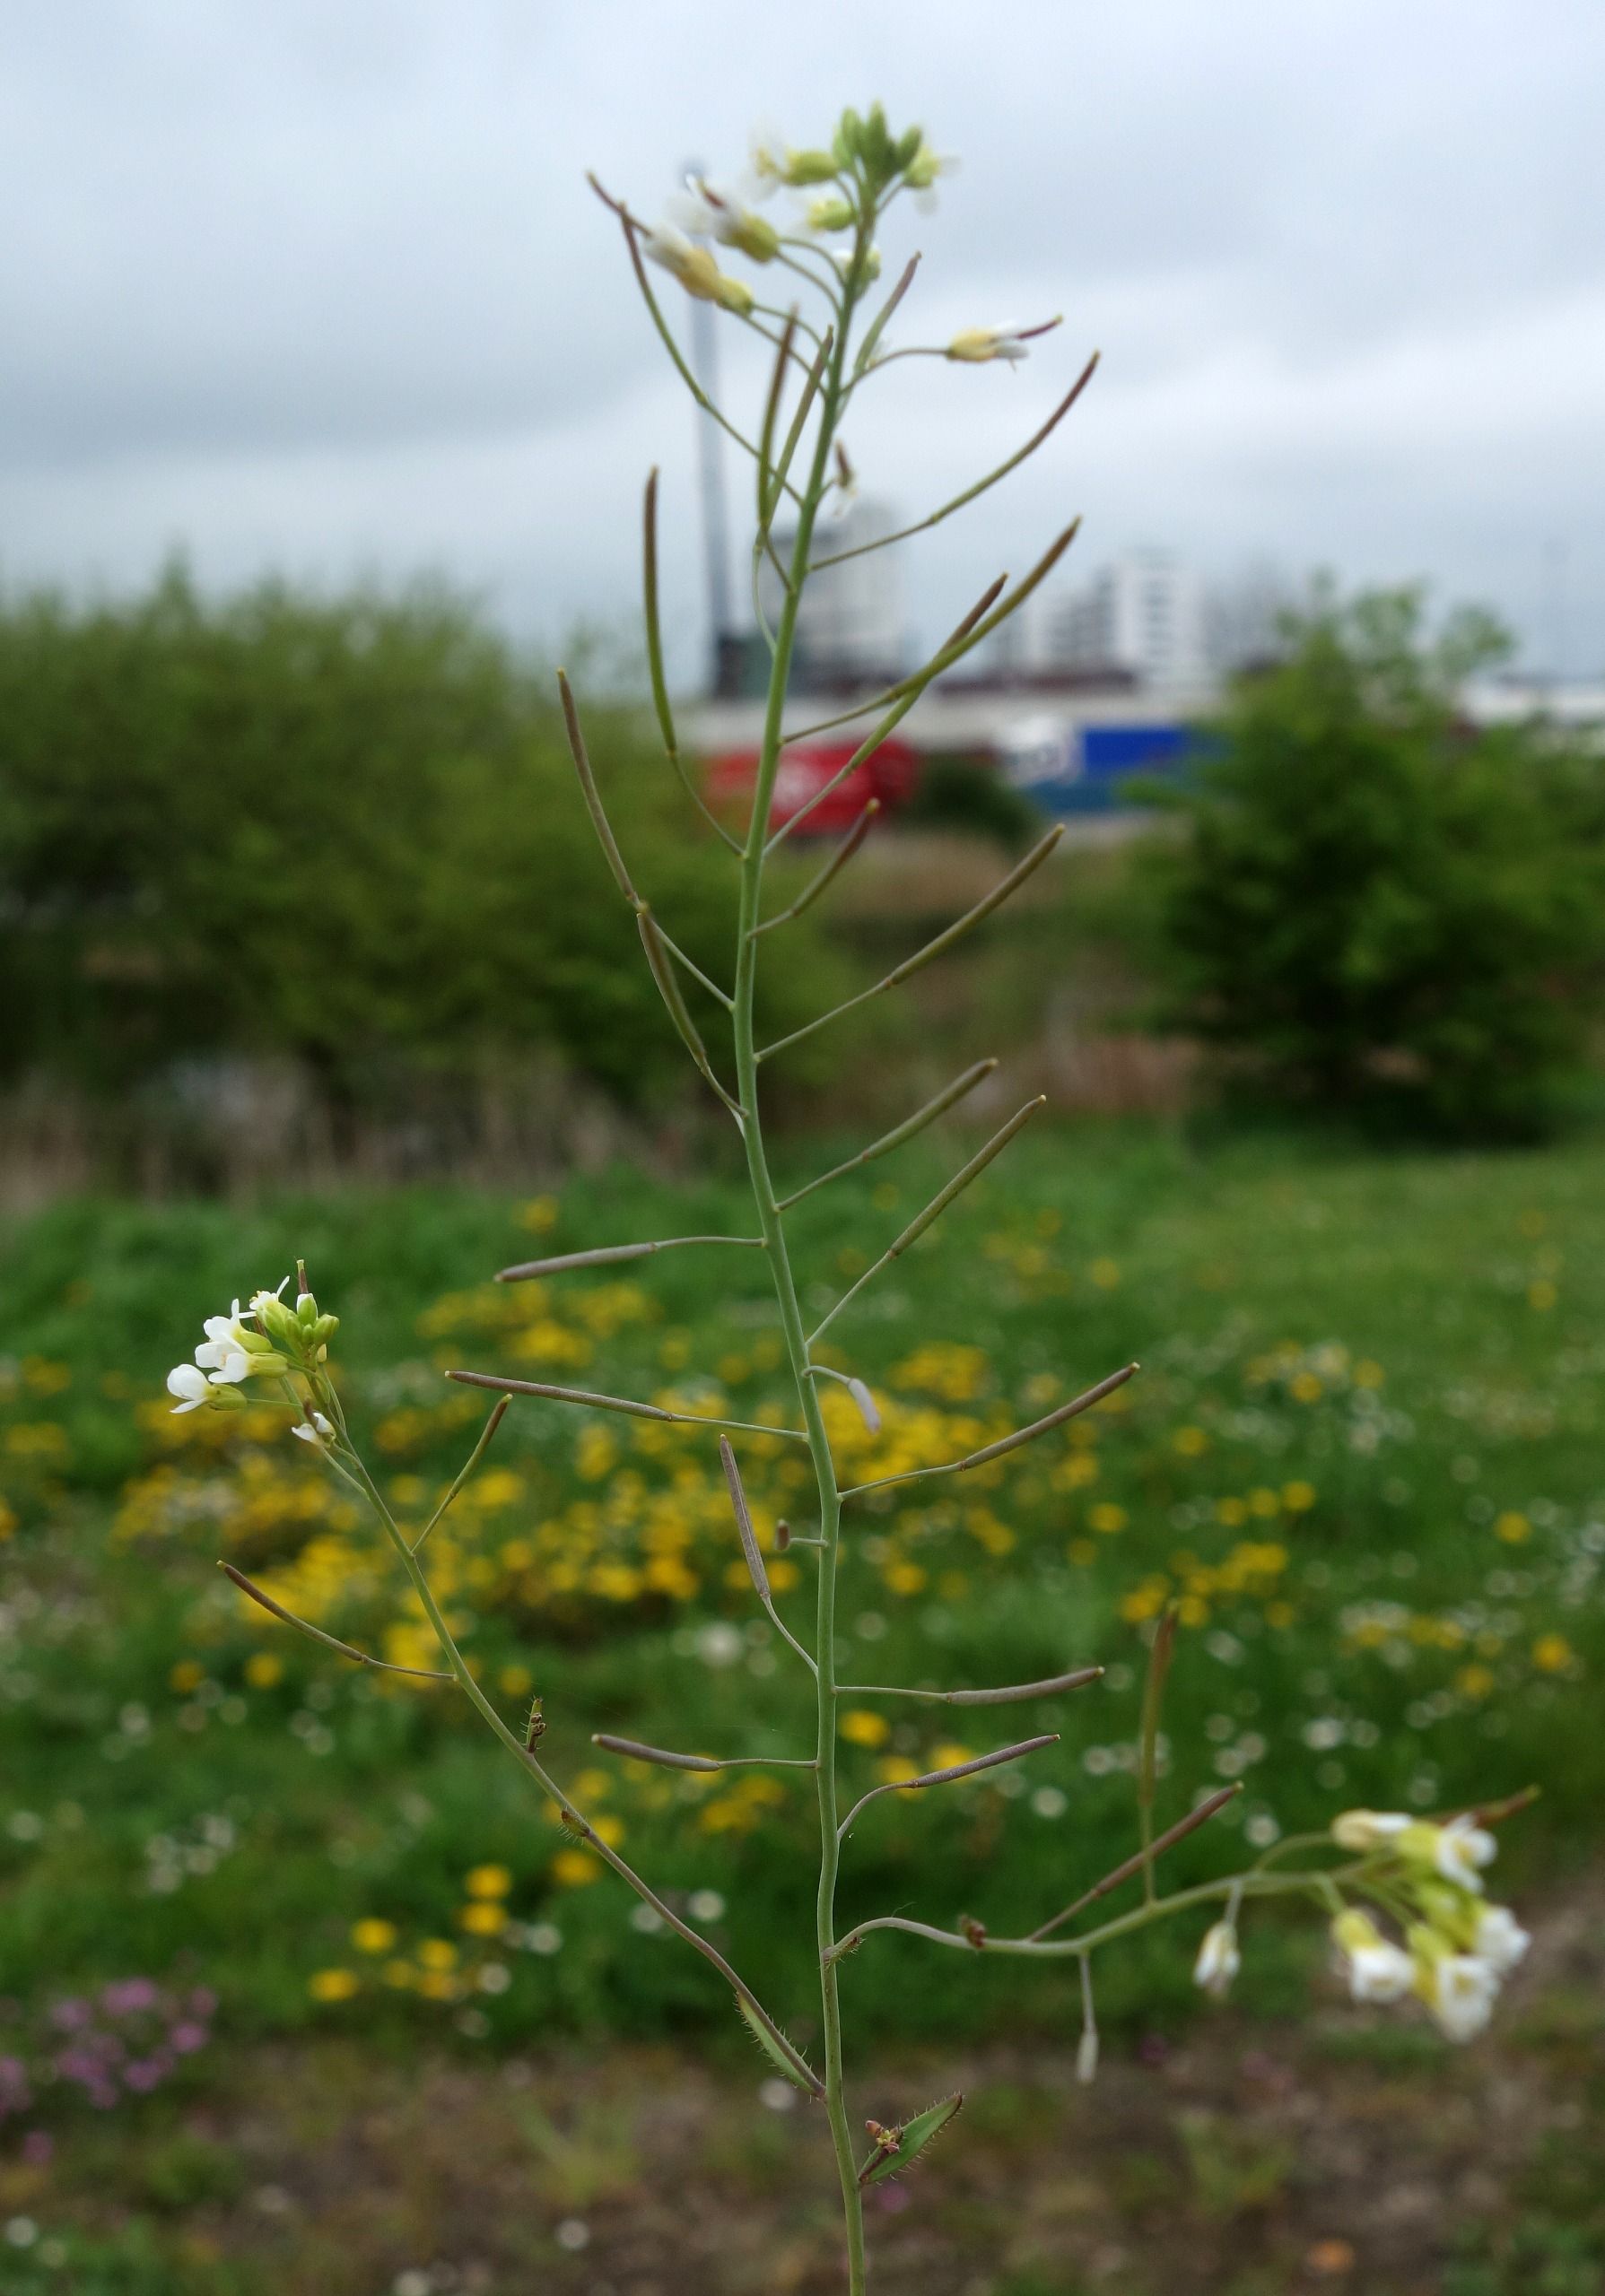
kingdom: Plantae
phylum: Tracheophyta
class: Magnoliopsida
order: Brassicales
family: Brassicaceae
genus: Arabidopsis
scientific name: Arabidopsis thaliana
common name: Almindelig gåsemad
